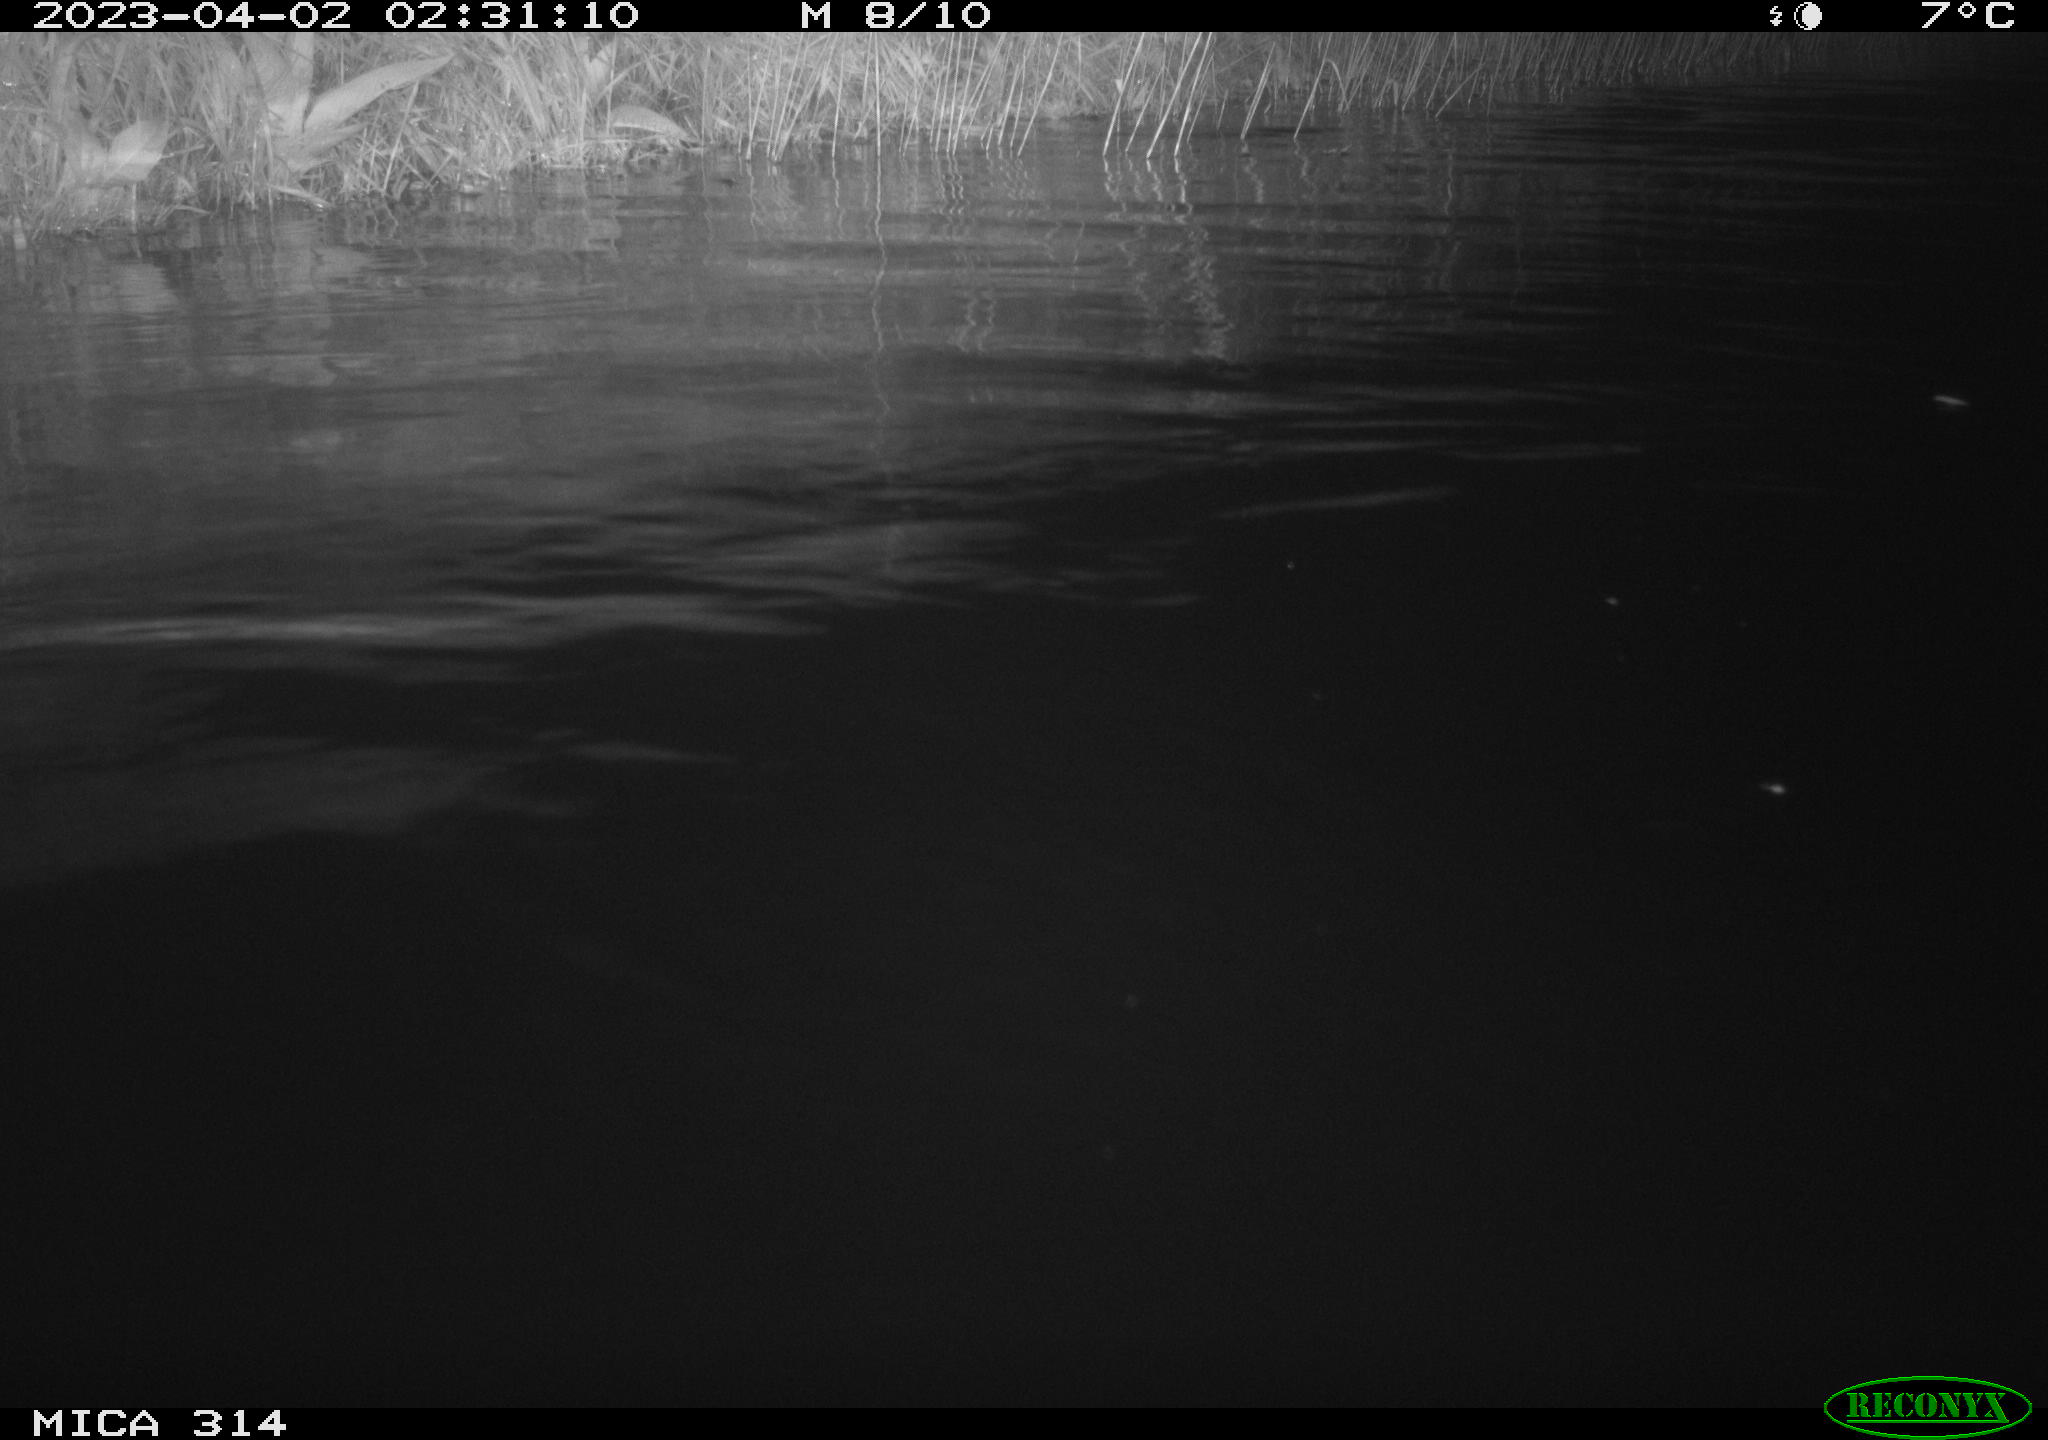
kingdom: Animalia
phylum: Chordata
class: Aves
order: Anseriformes
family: Anatidae
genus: Anas
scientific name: Anas
